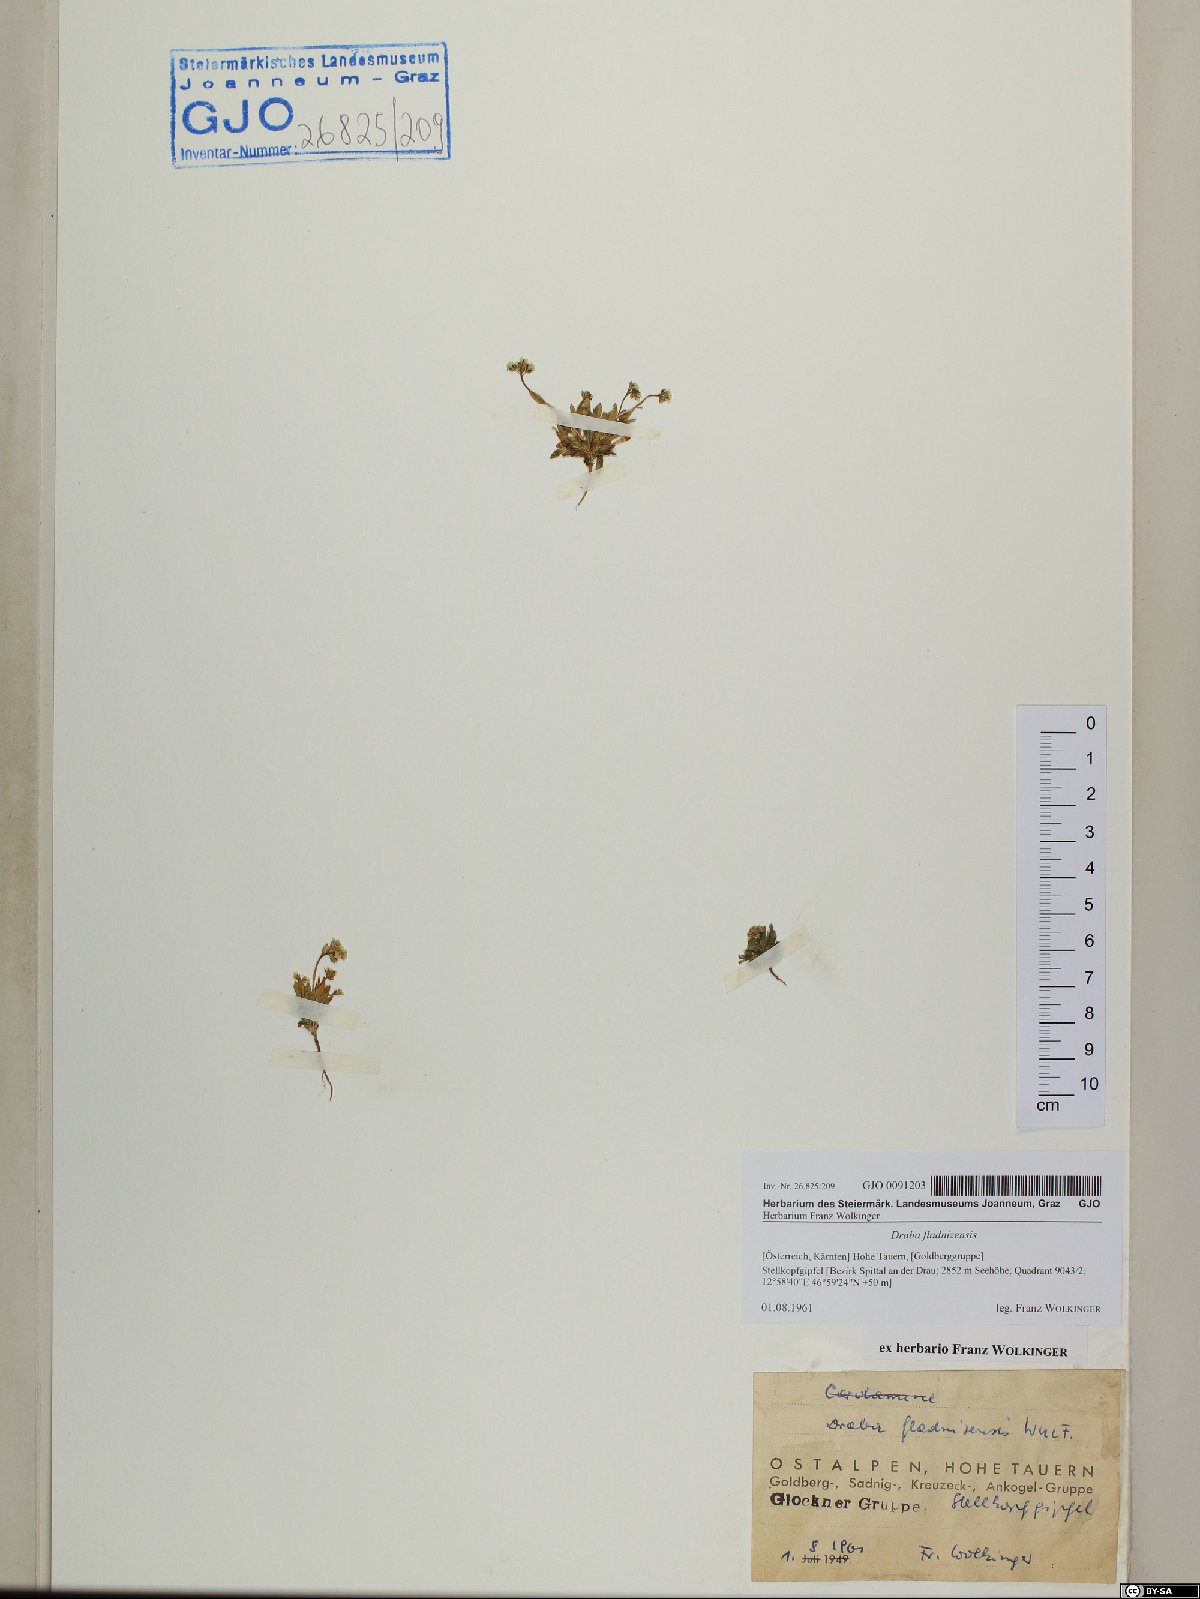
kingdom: Plantae
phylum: Tracheophyta
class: Magnoliopsida
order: Brassicales
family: Brassicaceae
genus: Draba
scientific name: Draba fladnizensis
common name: Austrian draba
